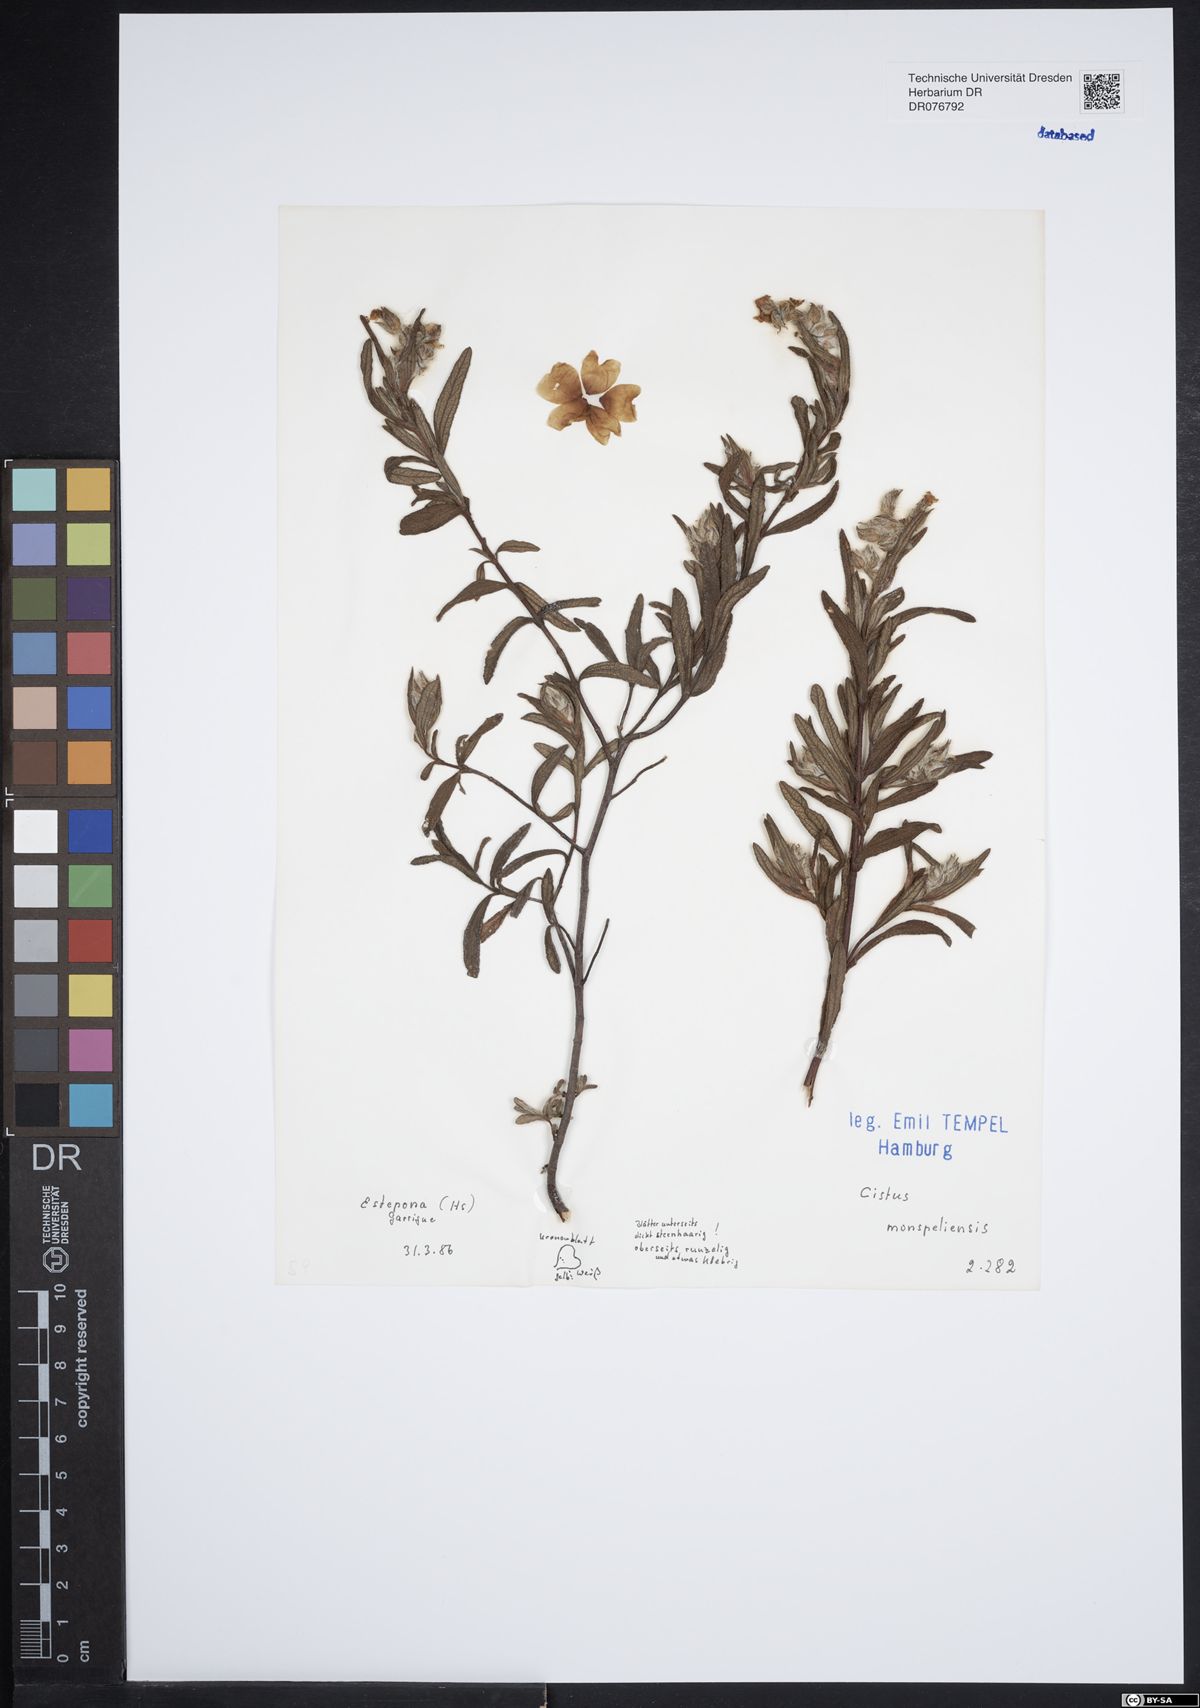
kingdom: Plantae
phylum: Tracheophyta
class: Magnoliopsida
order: Malvales
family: Cistaceae
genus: Cistus
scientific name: Cistus monspeliensis
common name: Montpelier cistus
